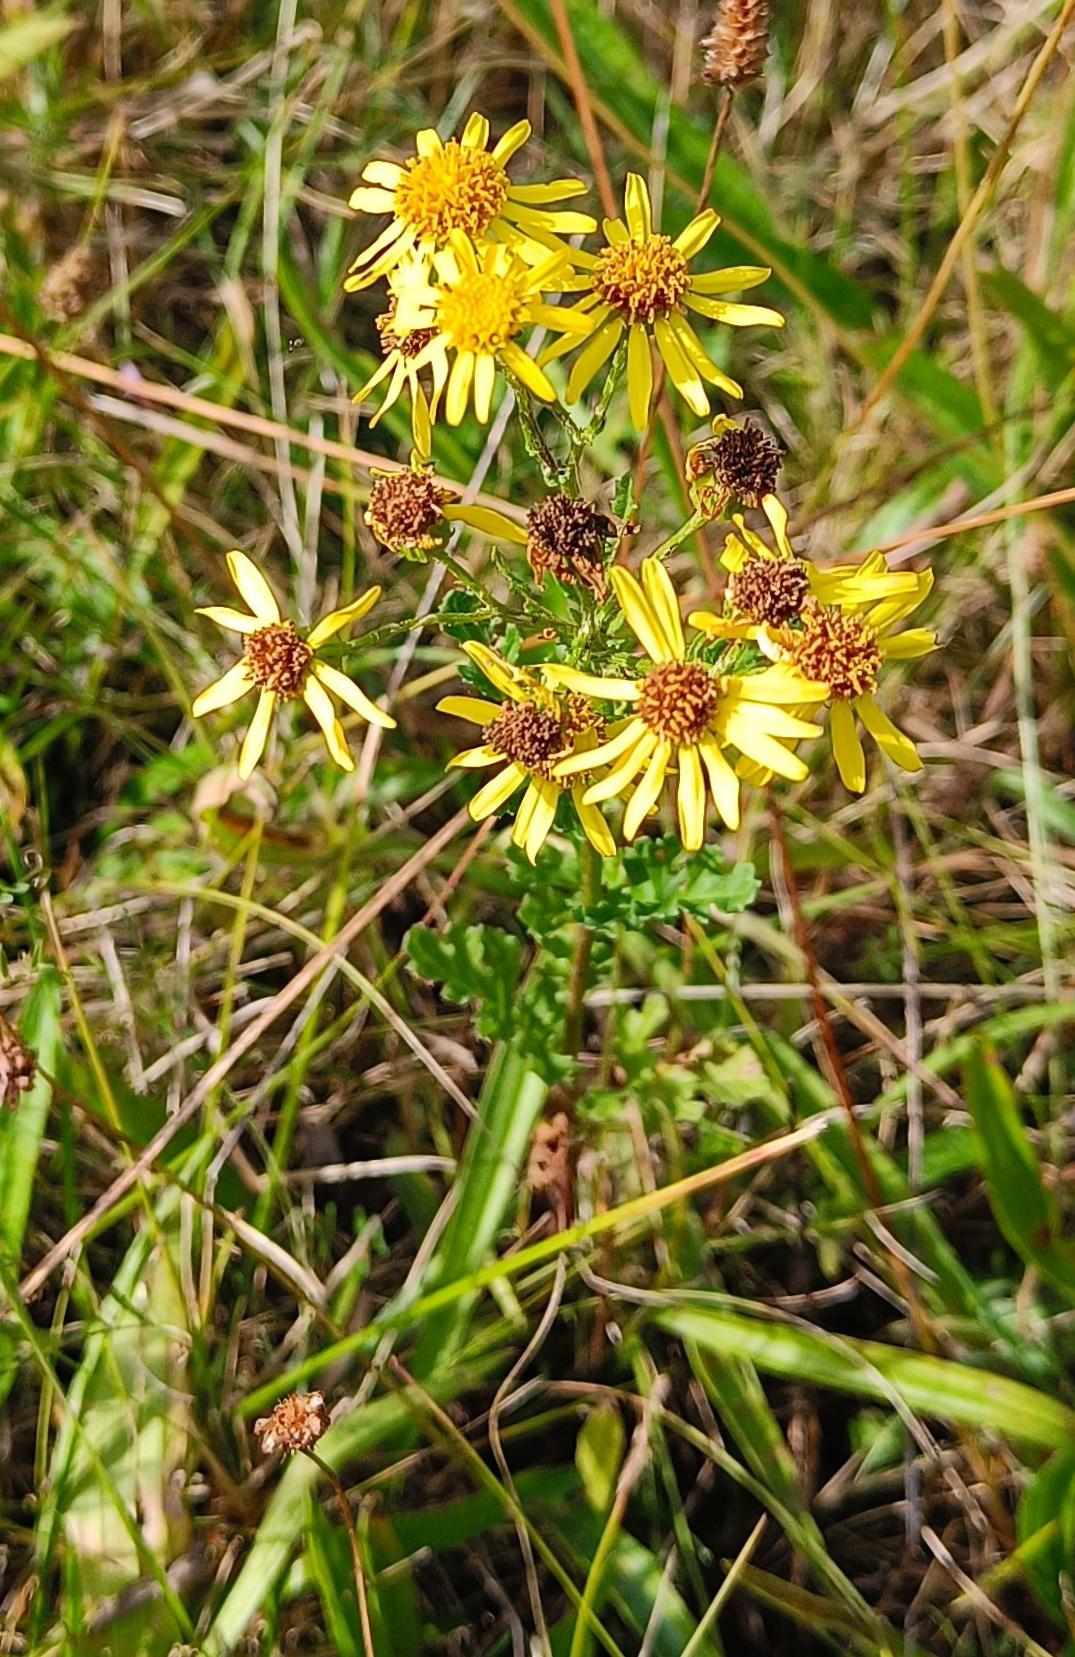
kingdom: Plantae
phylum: Tracheophyta
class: Magnoliopsida
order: Asterales
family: Asteraceae
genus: Jacobaea
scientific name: Jacobaea vulgaris
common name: Eng-brandbæger
